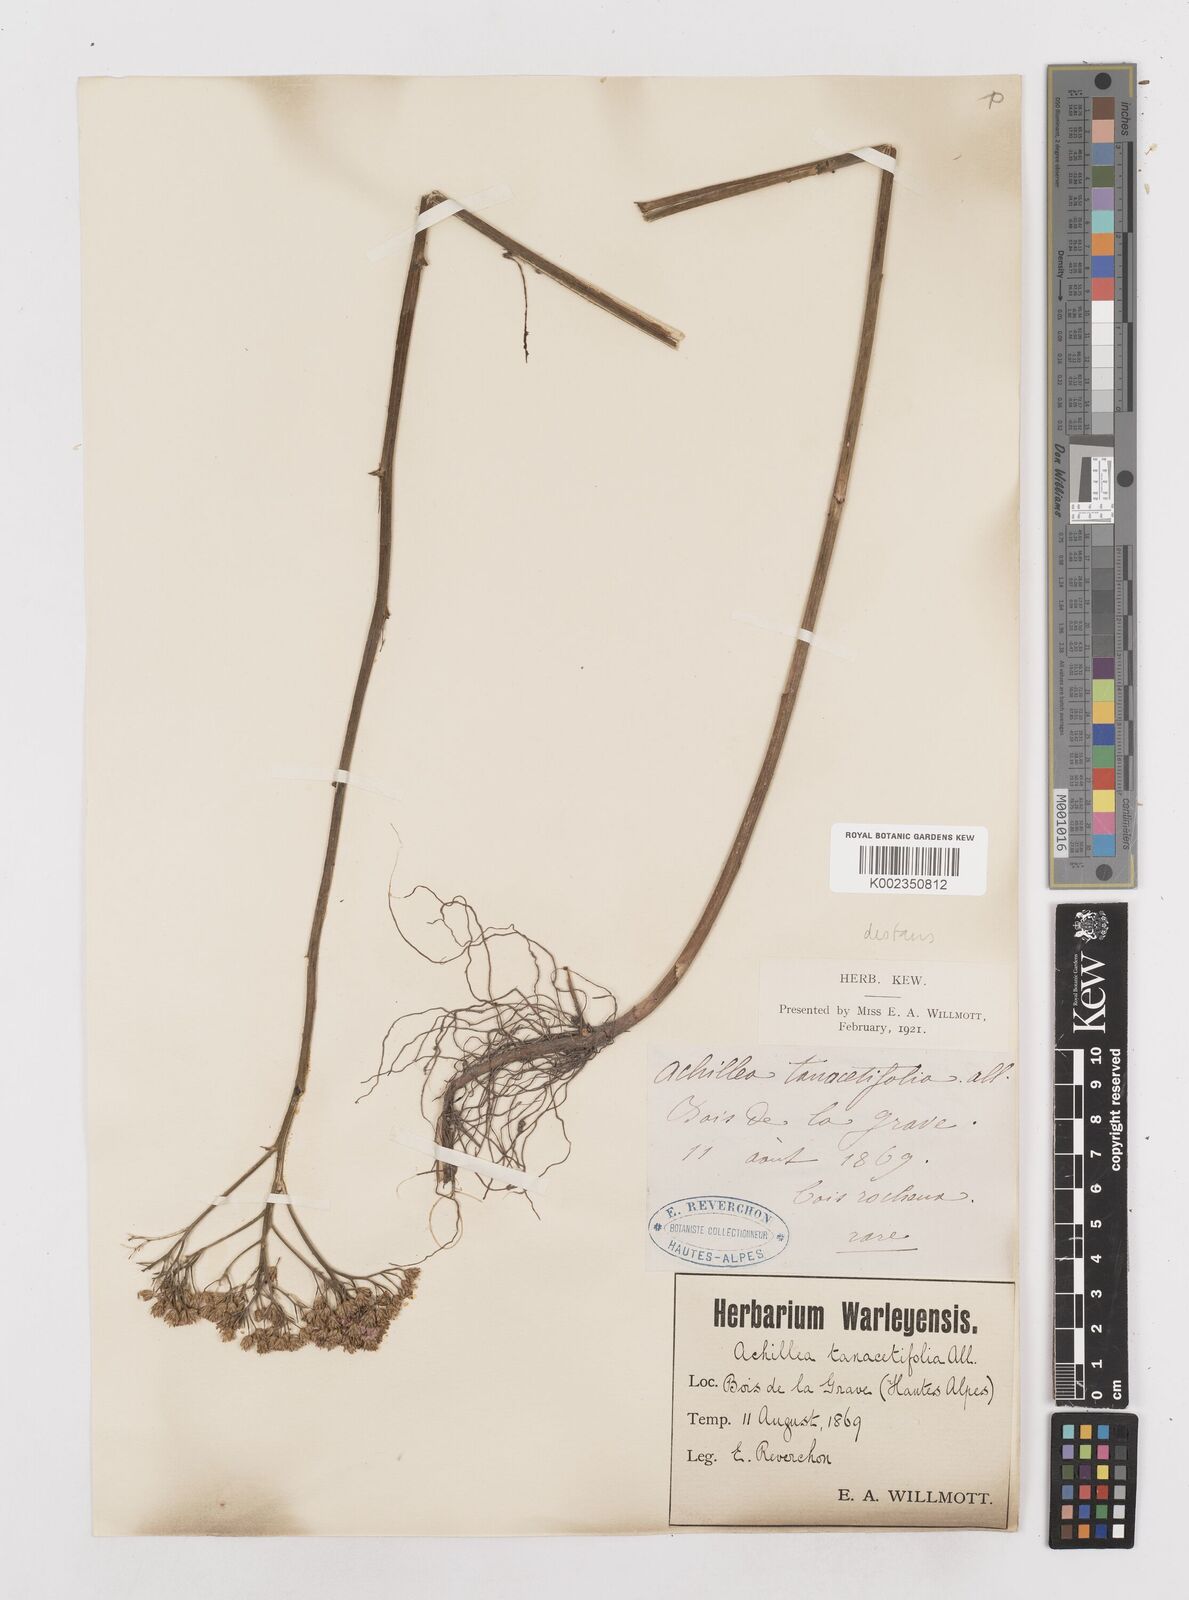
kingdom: Plantae
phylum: Tracheophyta
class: Magnoliopsida
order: Asterales
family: Asteraceae
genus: Achillea
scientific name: Achillea distans
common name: Tall yarrow
